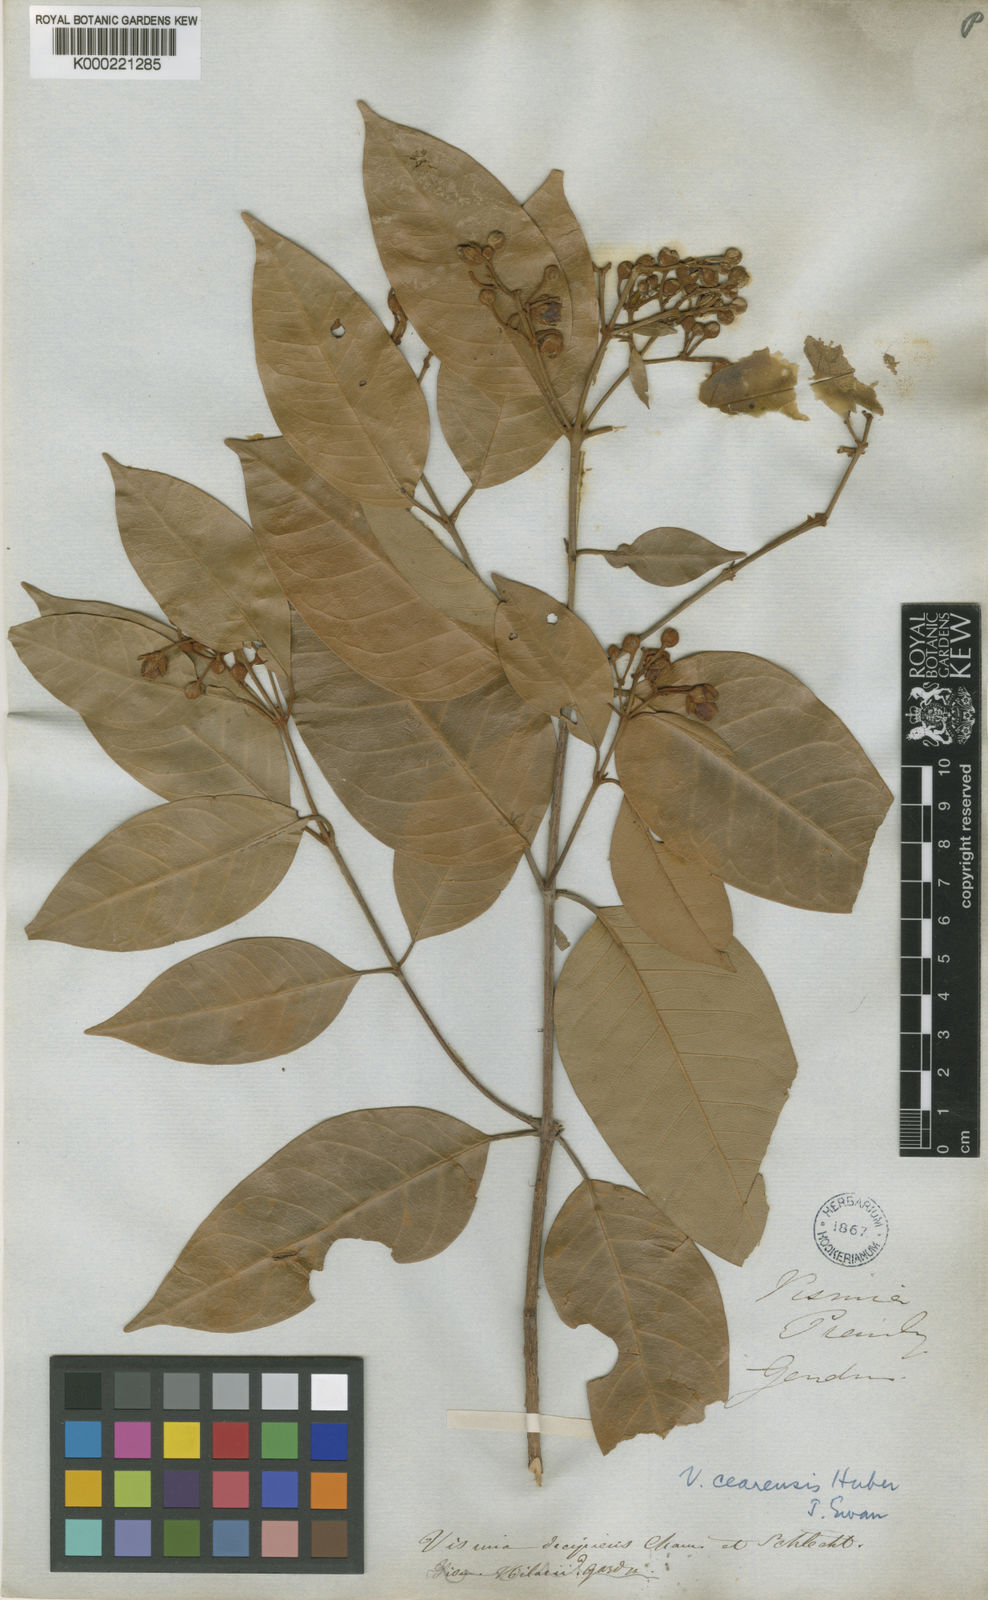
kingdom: Plantae
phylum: Tracheophyta
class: Magnoliopsida
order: Malpighiales
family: Hypericaceae
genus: Vismia
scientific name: Vismia guianensis
